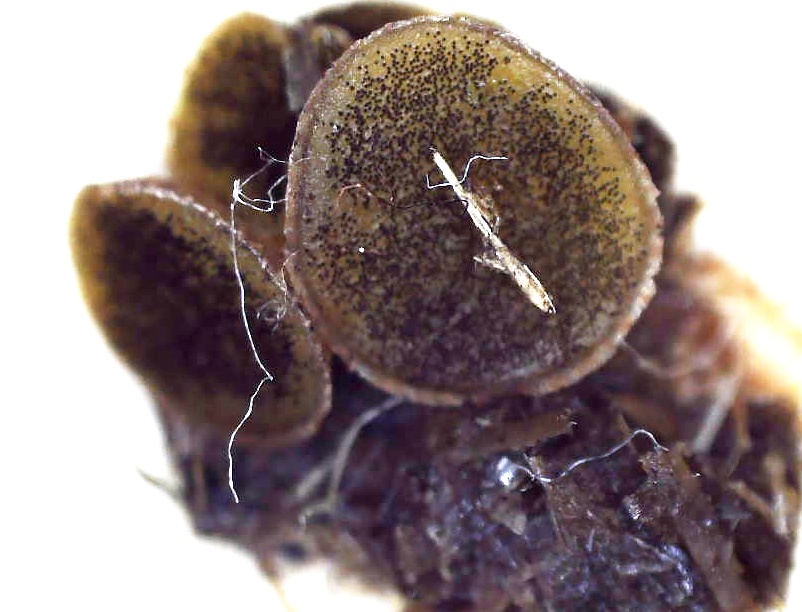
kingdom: Fungi
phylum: Ascomycota
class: Pezizomycetes
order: Pezizales
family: Ascobolaceae
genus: Ascobolus
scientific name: Ascobolus furfuraceus
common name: almindelig prikbæger
